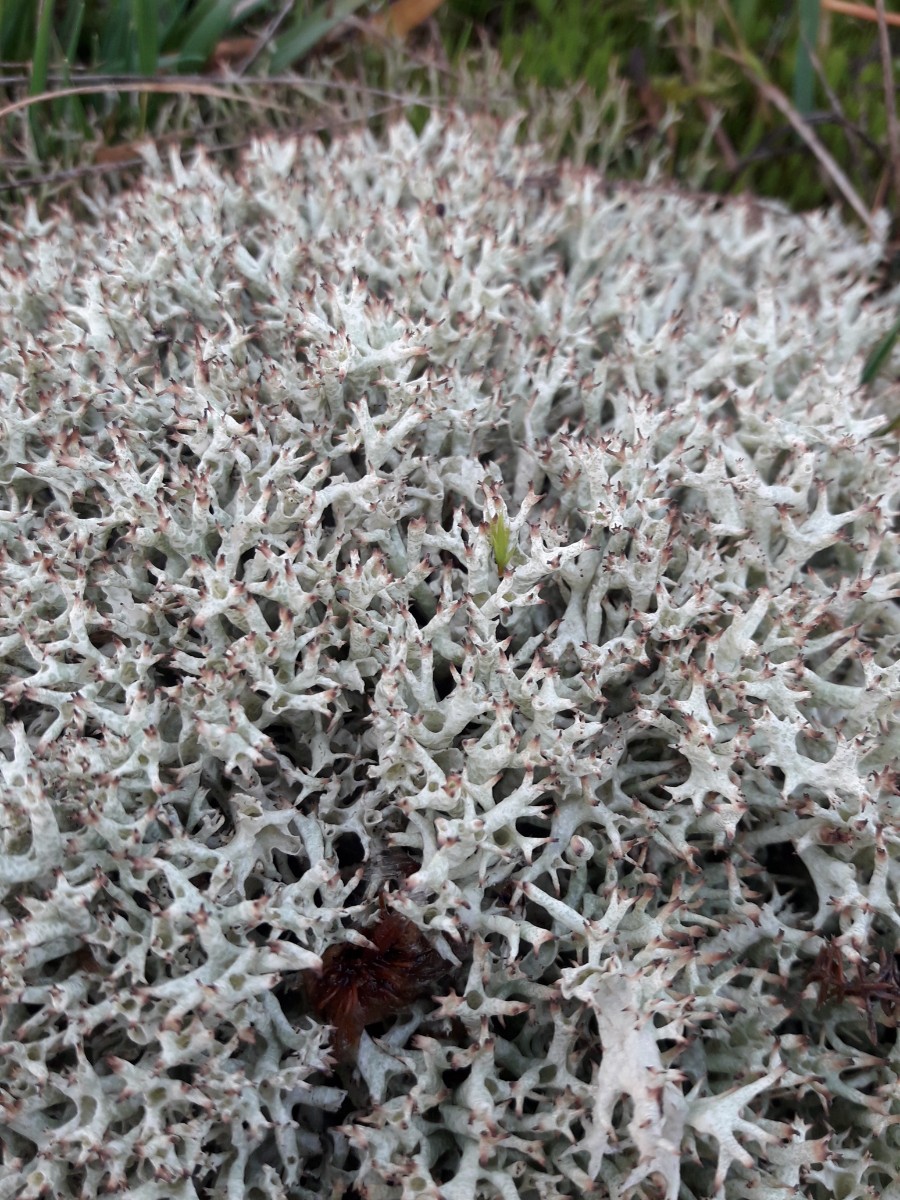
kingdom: Fungi
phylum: Ascomycota
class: Lecanoromycetes
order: Lecanorales
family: Cladoniaceae
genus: Cladonia
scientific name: Cladonia uncialis
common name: pigget bægerlav
